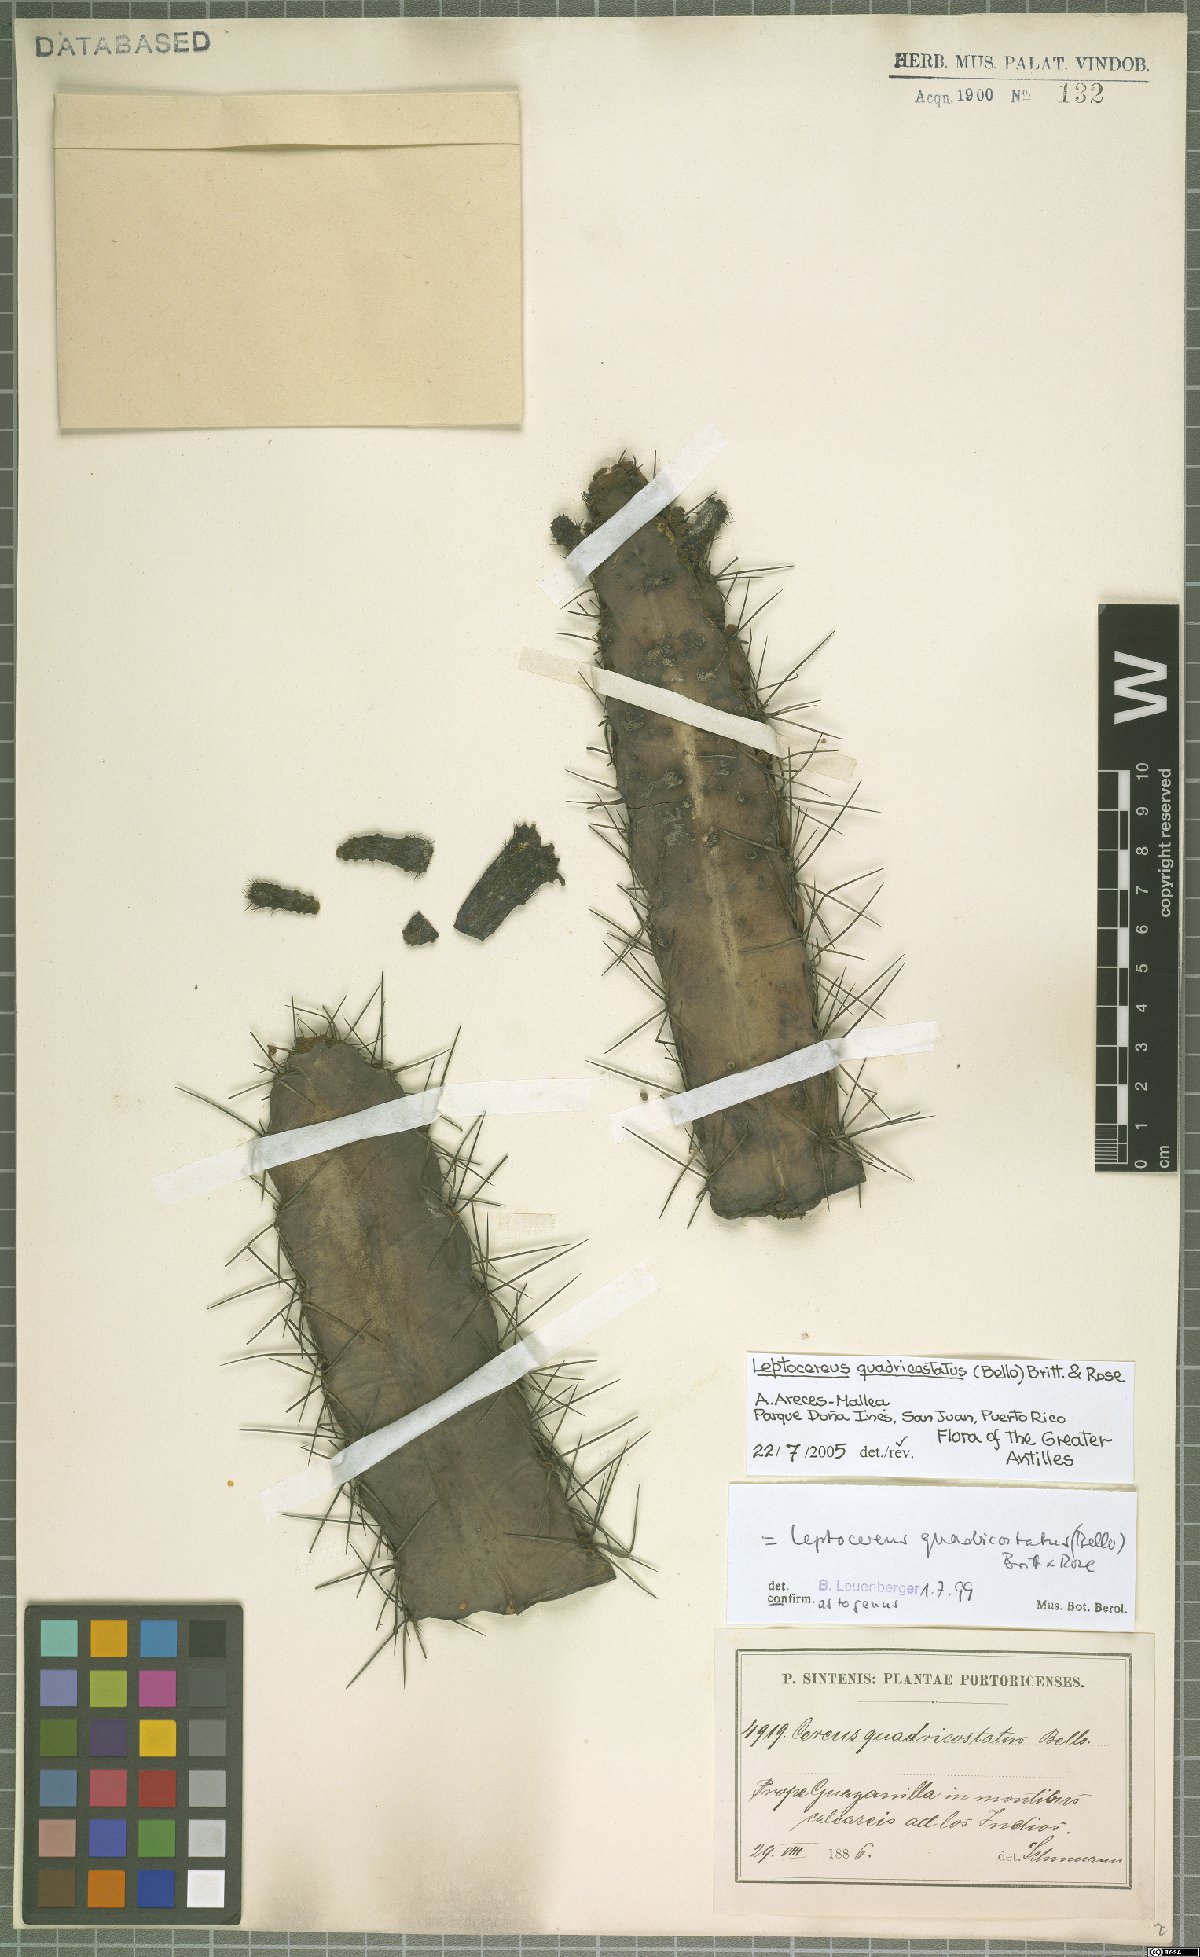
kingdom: Plantae
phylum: Tracheophyta
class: Magnoliopsida
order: Caryophyllales
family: Cactaceae
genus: Leptocereus
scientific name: Leptocereus quadricostatus
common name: Sebucan
